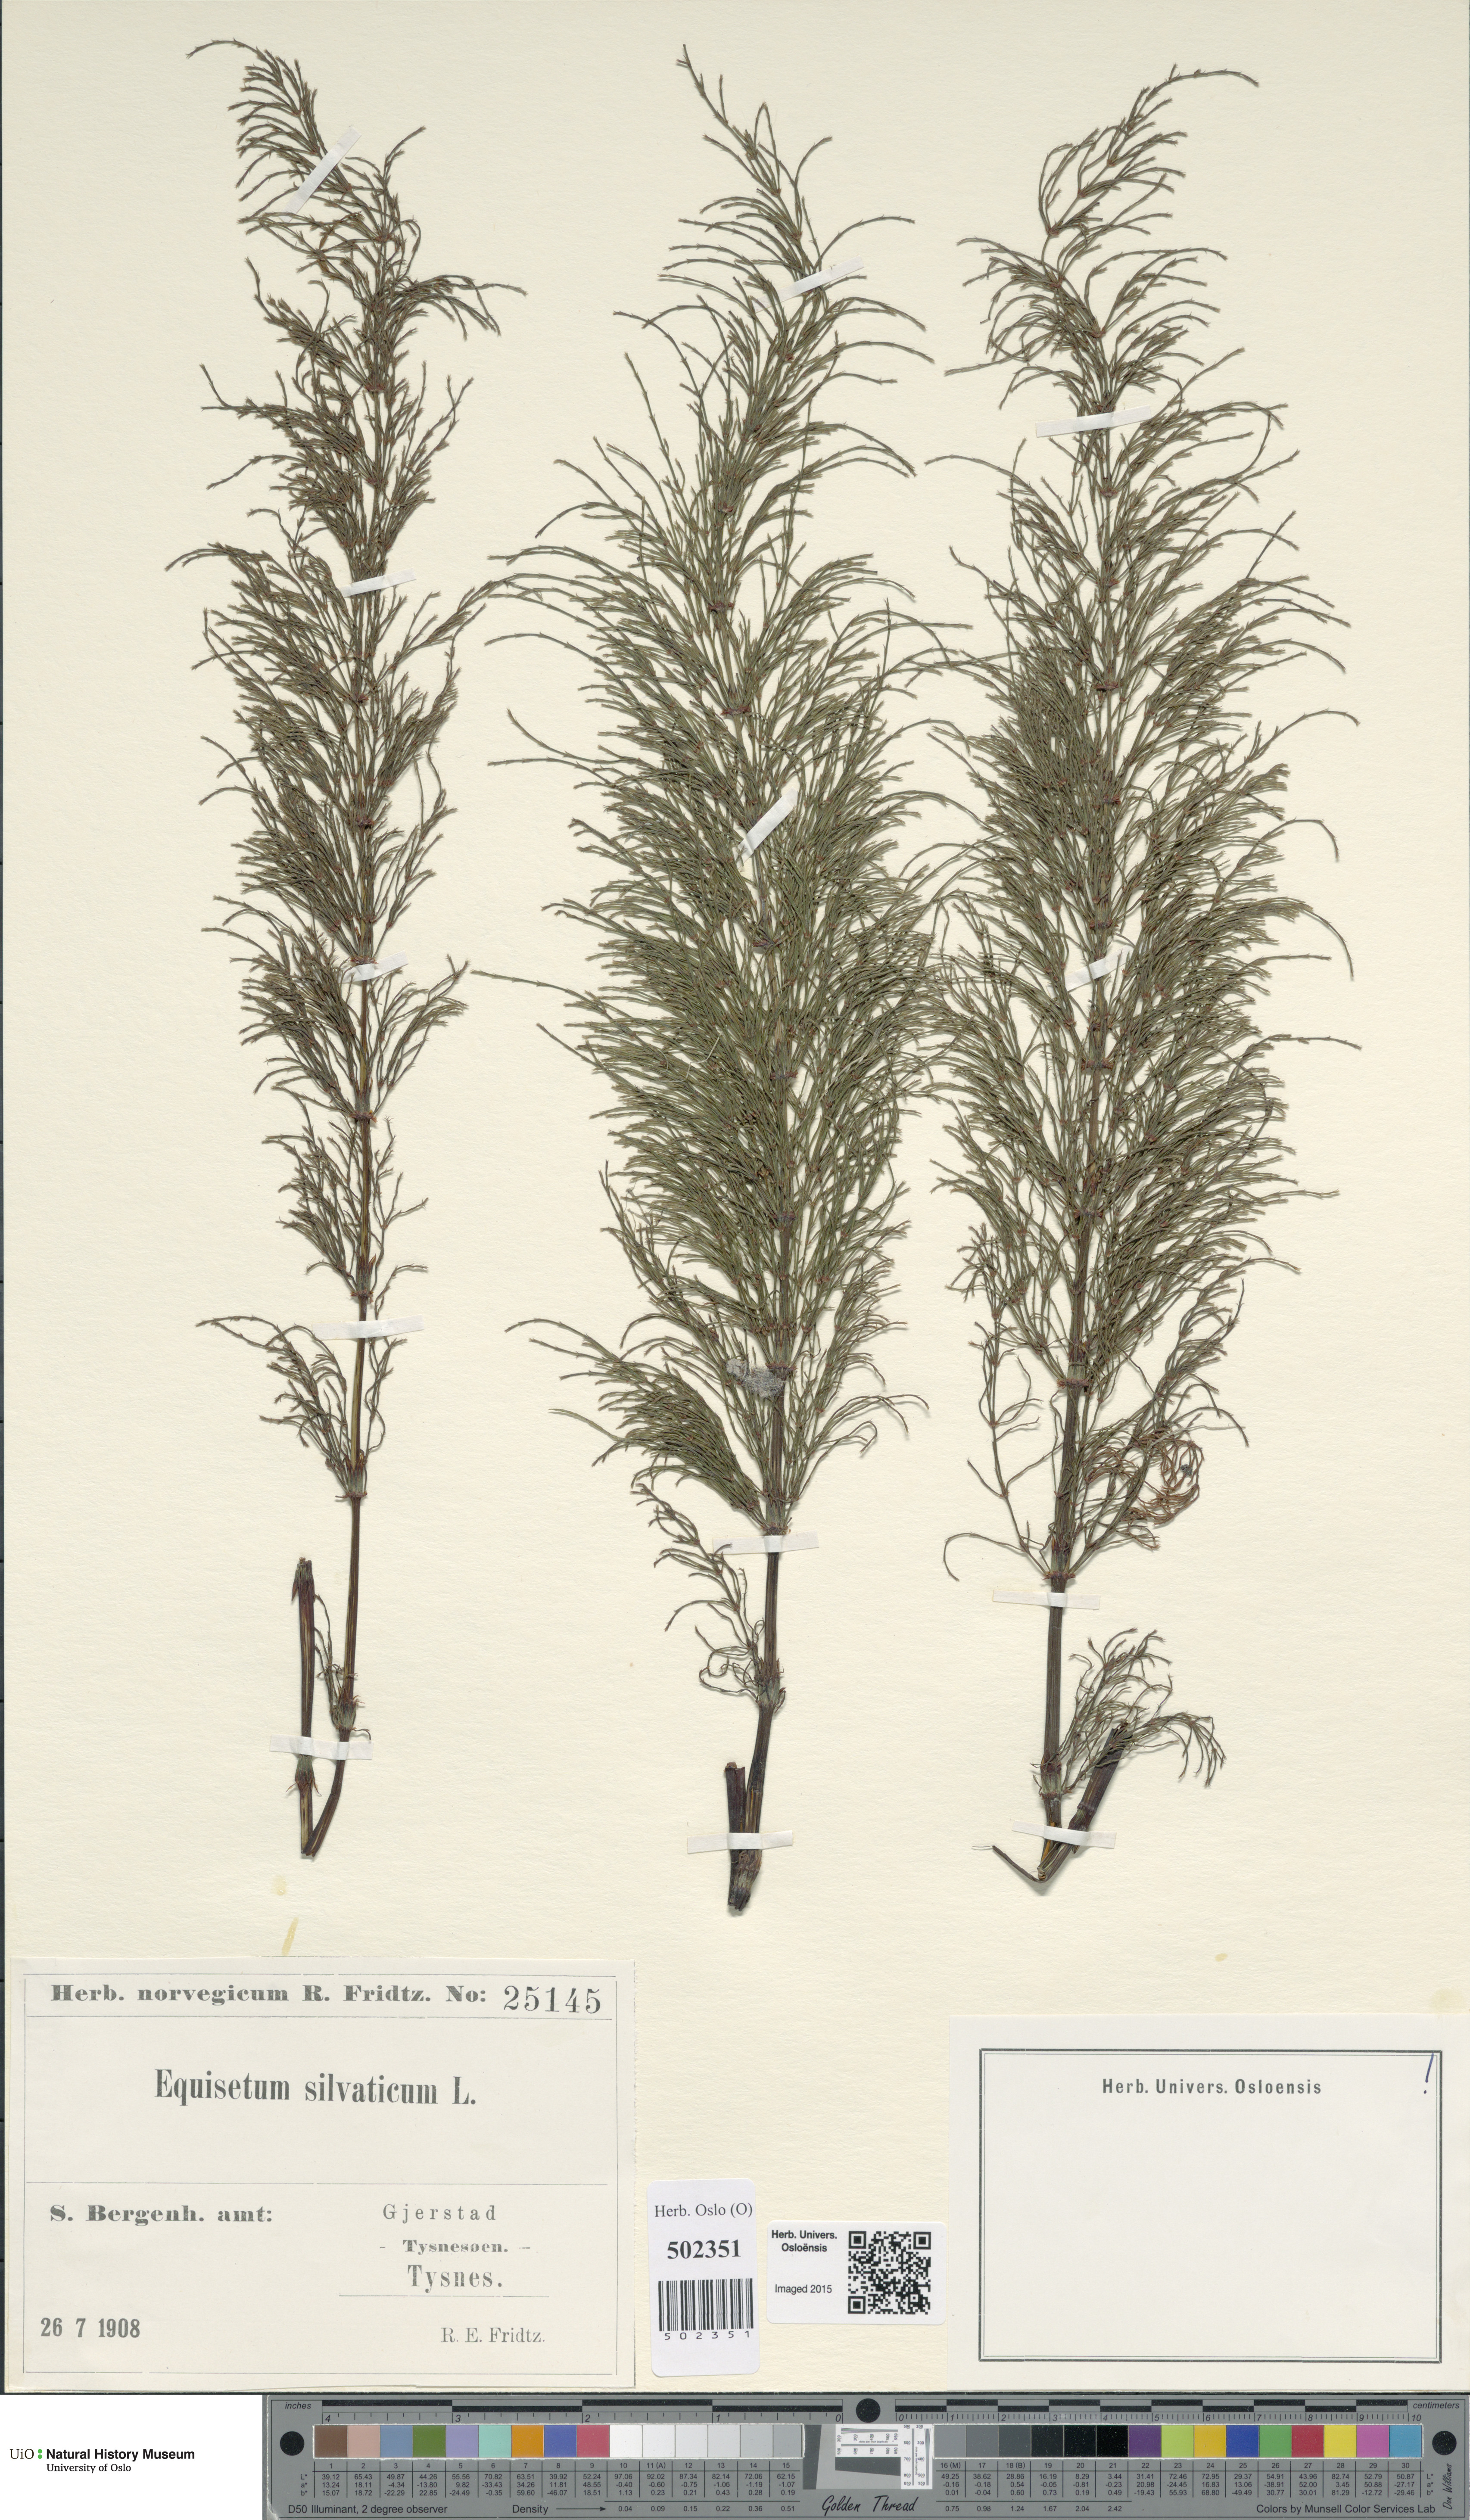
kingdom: Plantae
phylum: Tracheophyta
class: Polypodiopsida
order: Equisetales
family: Equisetaceae
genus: Equisetum
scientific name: Equisetum sylvaticum
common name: Wood horsetail
